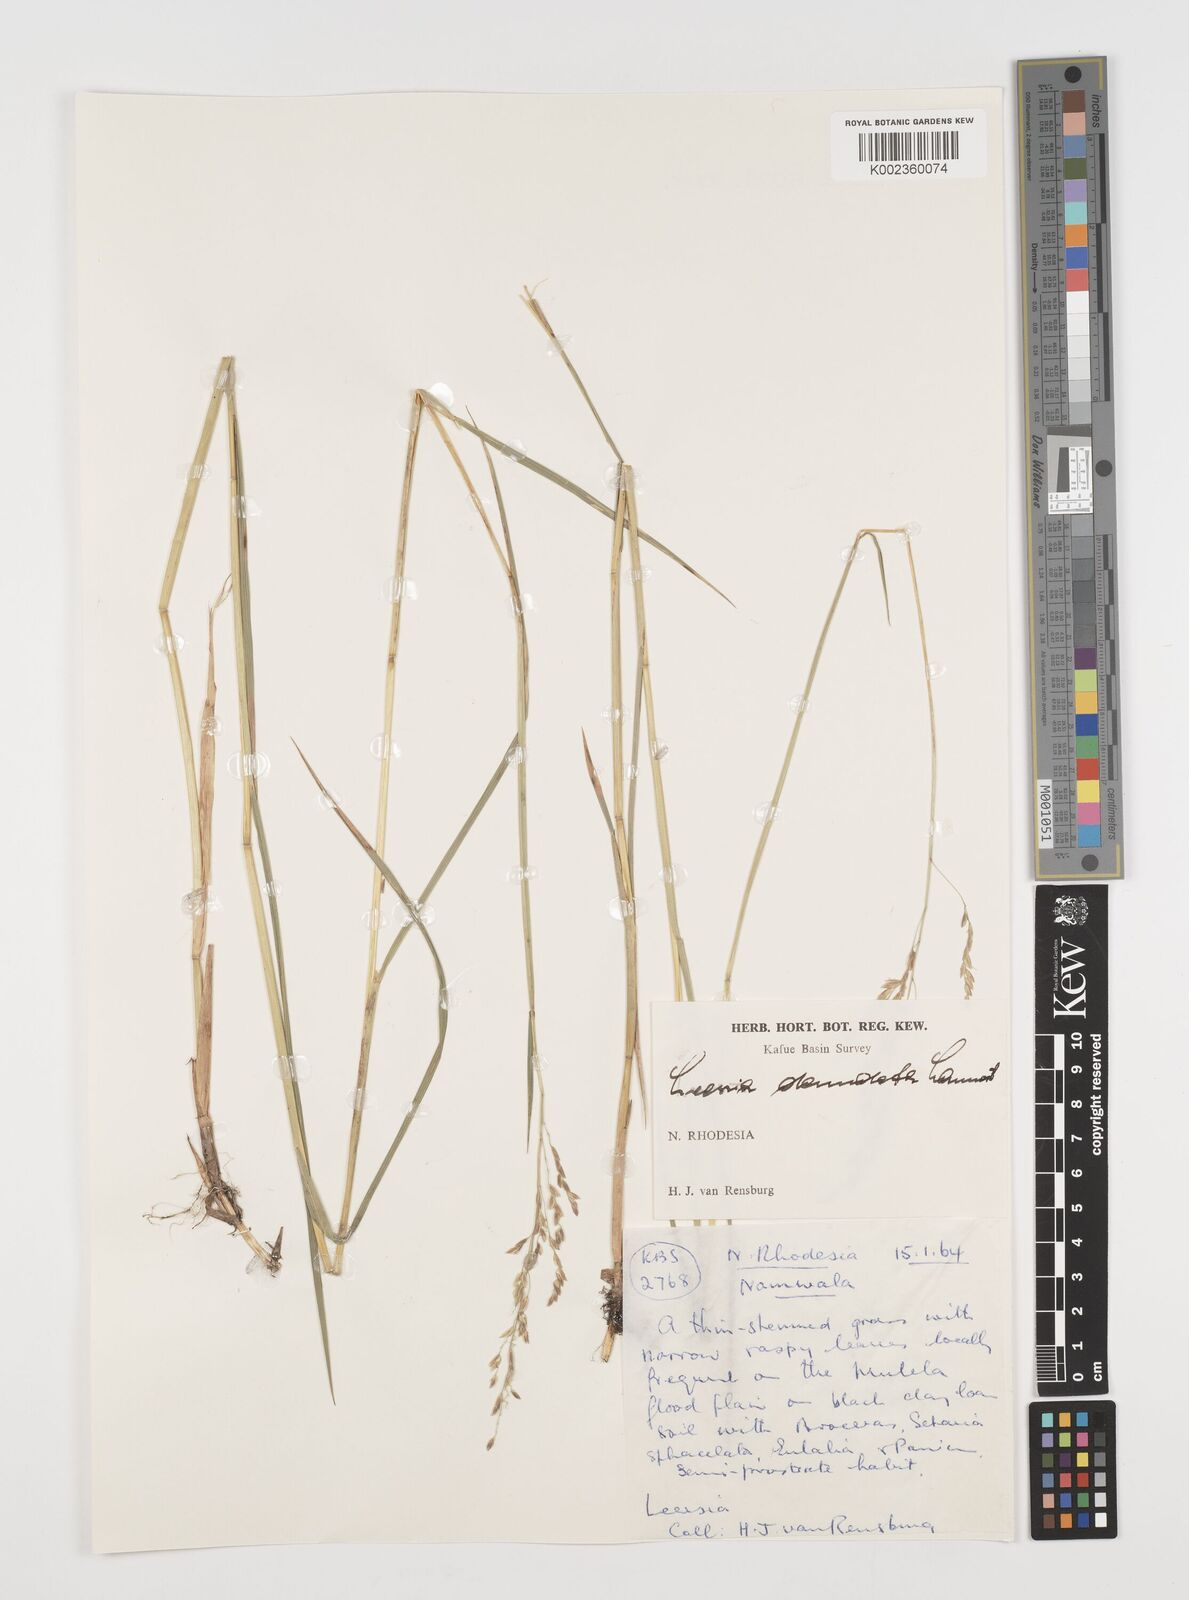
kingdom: Plantae
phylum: Tracheophyta
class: Liliopsida
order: Poales
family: Poaceae
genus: Leersia
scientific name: Leersia denudata
